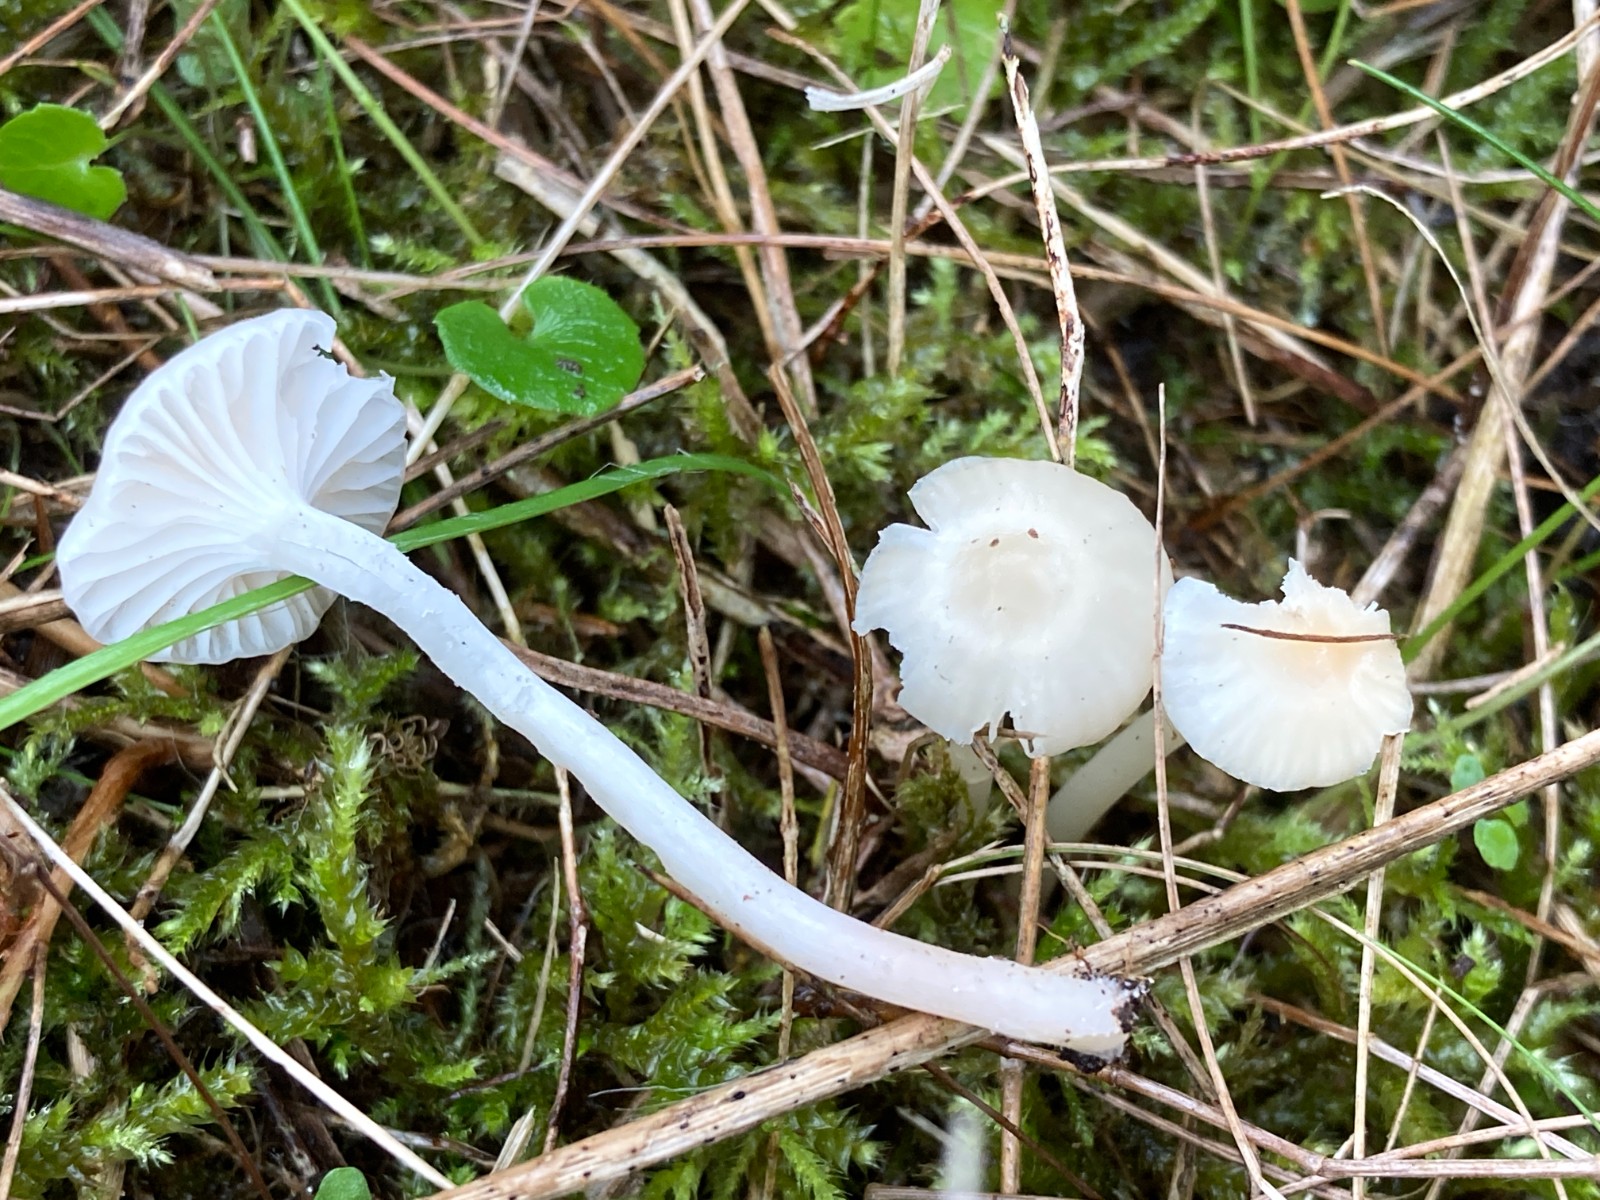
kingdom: Fungi
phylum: Basidiomycota
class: Agaricomycetes
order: Agaricales
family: Hygrophoraceae
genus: Cuphophyllus
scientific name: Cuphophyllus virgineus
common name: snehvid vokshat
